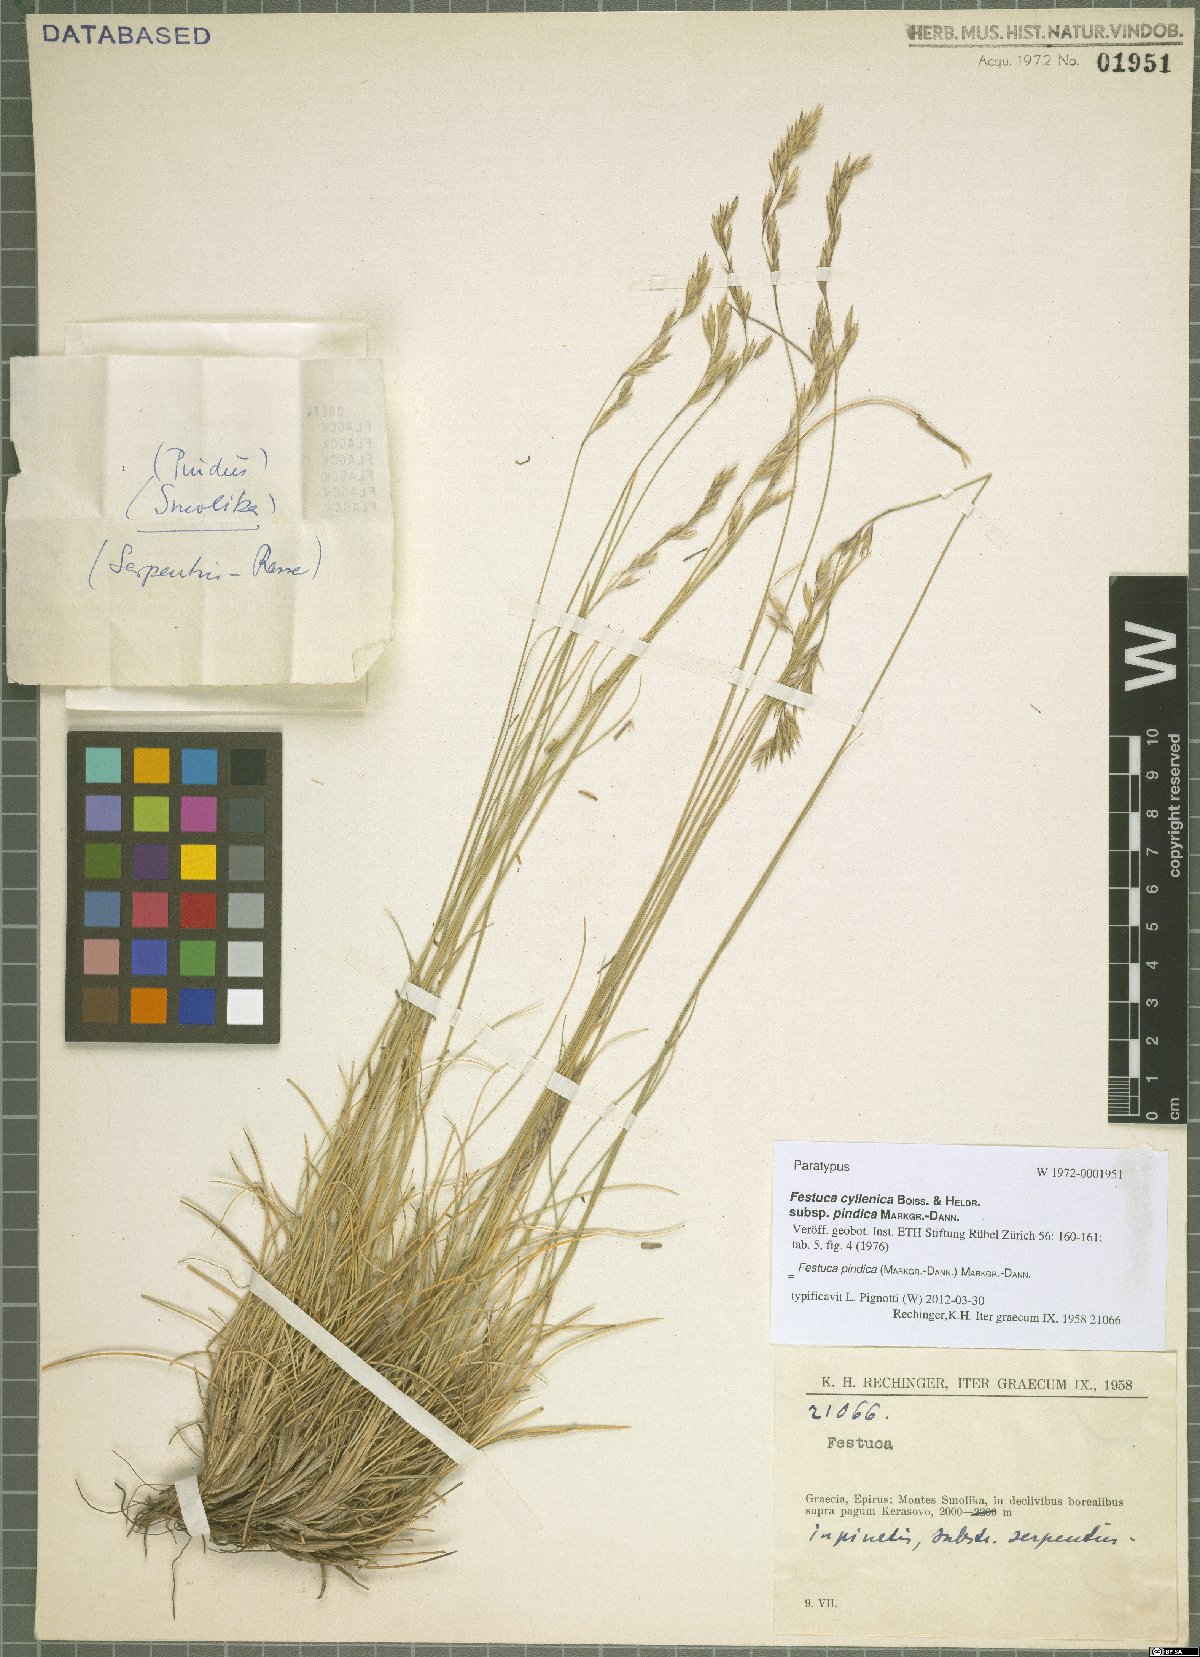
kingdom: Plantae
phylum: Tracheophyta
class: Liliopsida
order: Poales
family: Poaceae
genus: Festuca
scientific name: Festuca pindica
